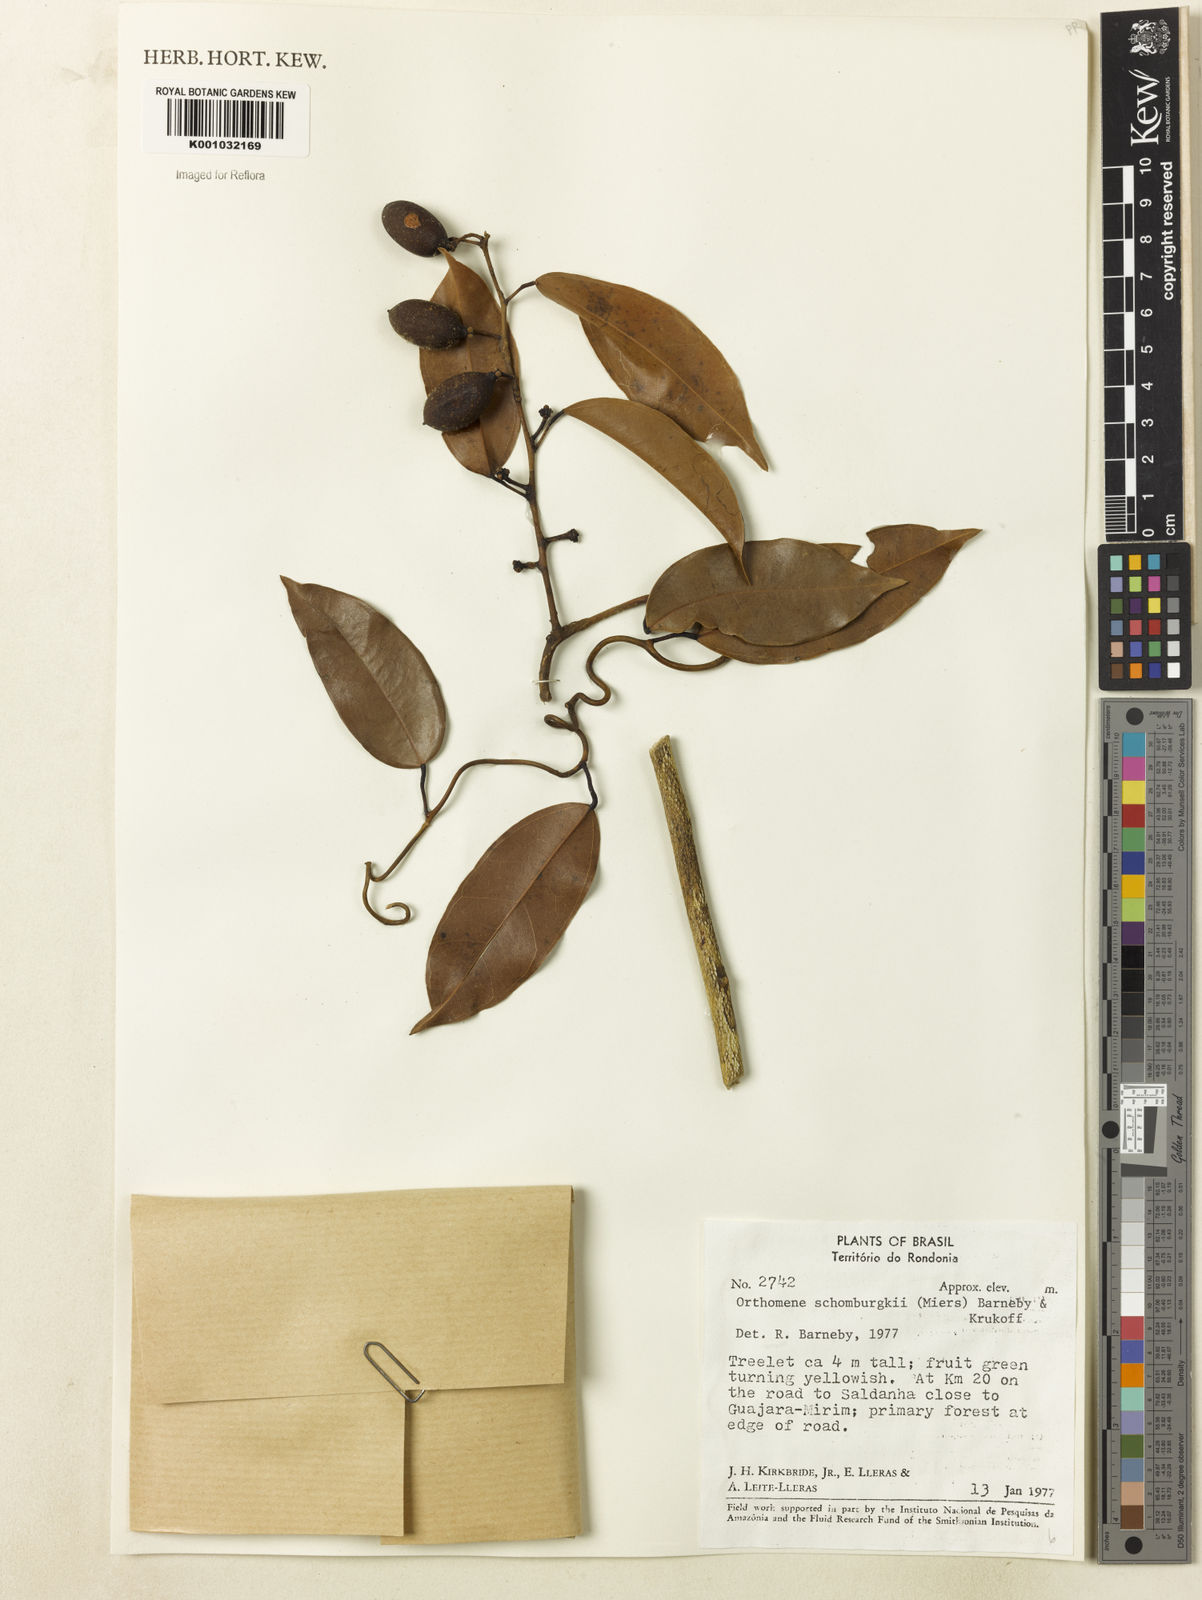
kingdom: Plantae
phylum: Tracheophyta
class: Magnoliopsida
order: Ranunculales
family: Menispermaceae
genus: Orthomene
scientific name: Orthomene schomburgkii
